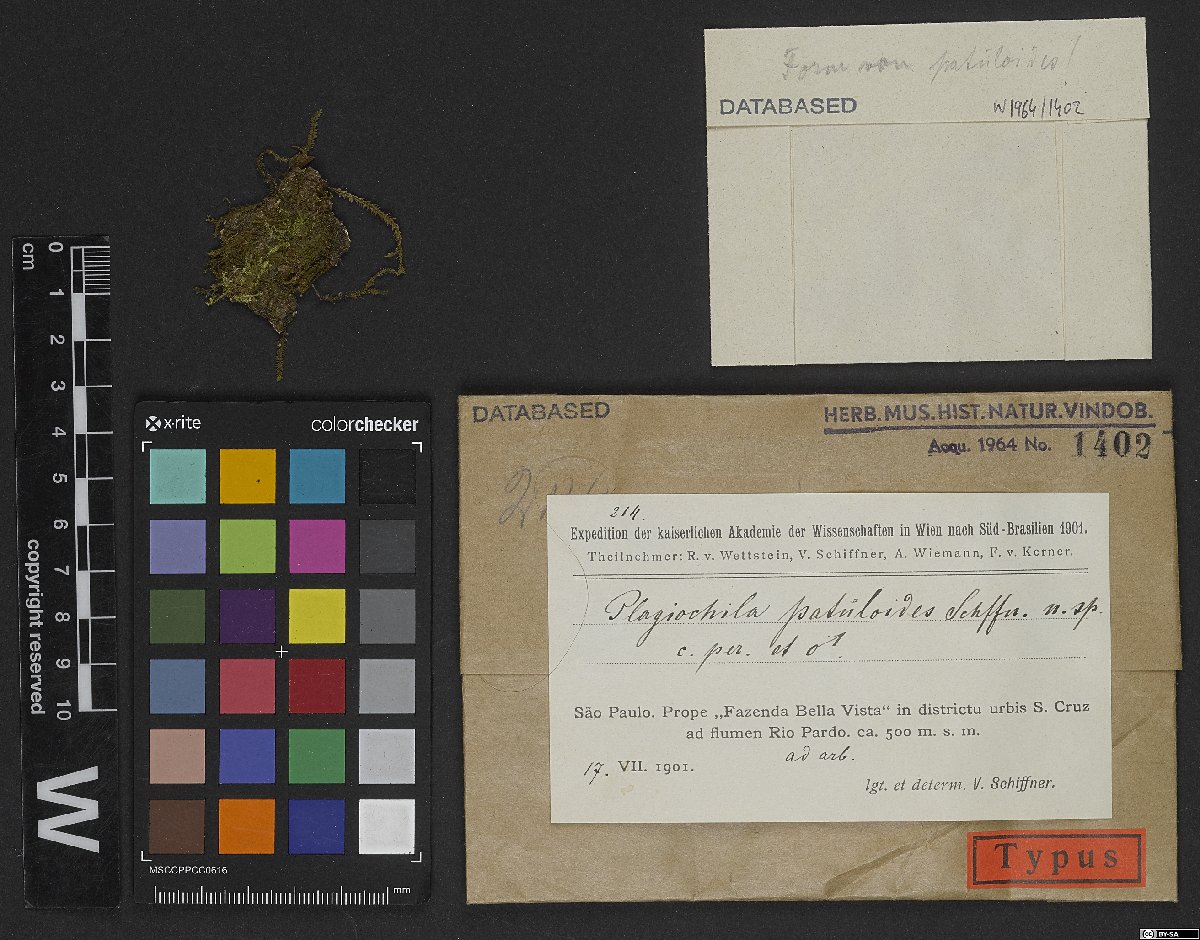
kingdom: Plantae
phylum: Marchantiophyta
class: Jungermanniopsida
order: Jungermanniales
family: Plagiochilaceae
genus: Plagiochila
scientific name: Plagiochila patuloides
